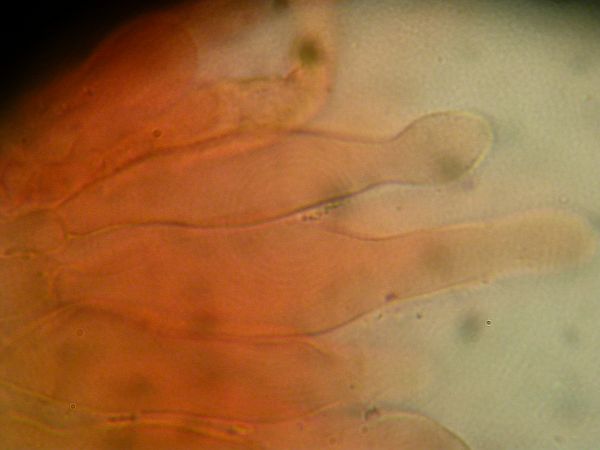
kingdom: Fungi
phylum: Basidiomycota
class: Agaricomycetes
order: Agaricales
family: Hymenogastraceae
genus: Galerina
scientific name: Galerina stagnina
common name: sortfodet hjelmhat
